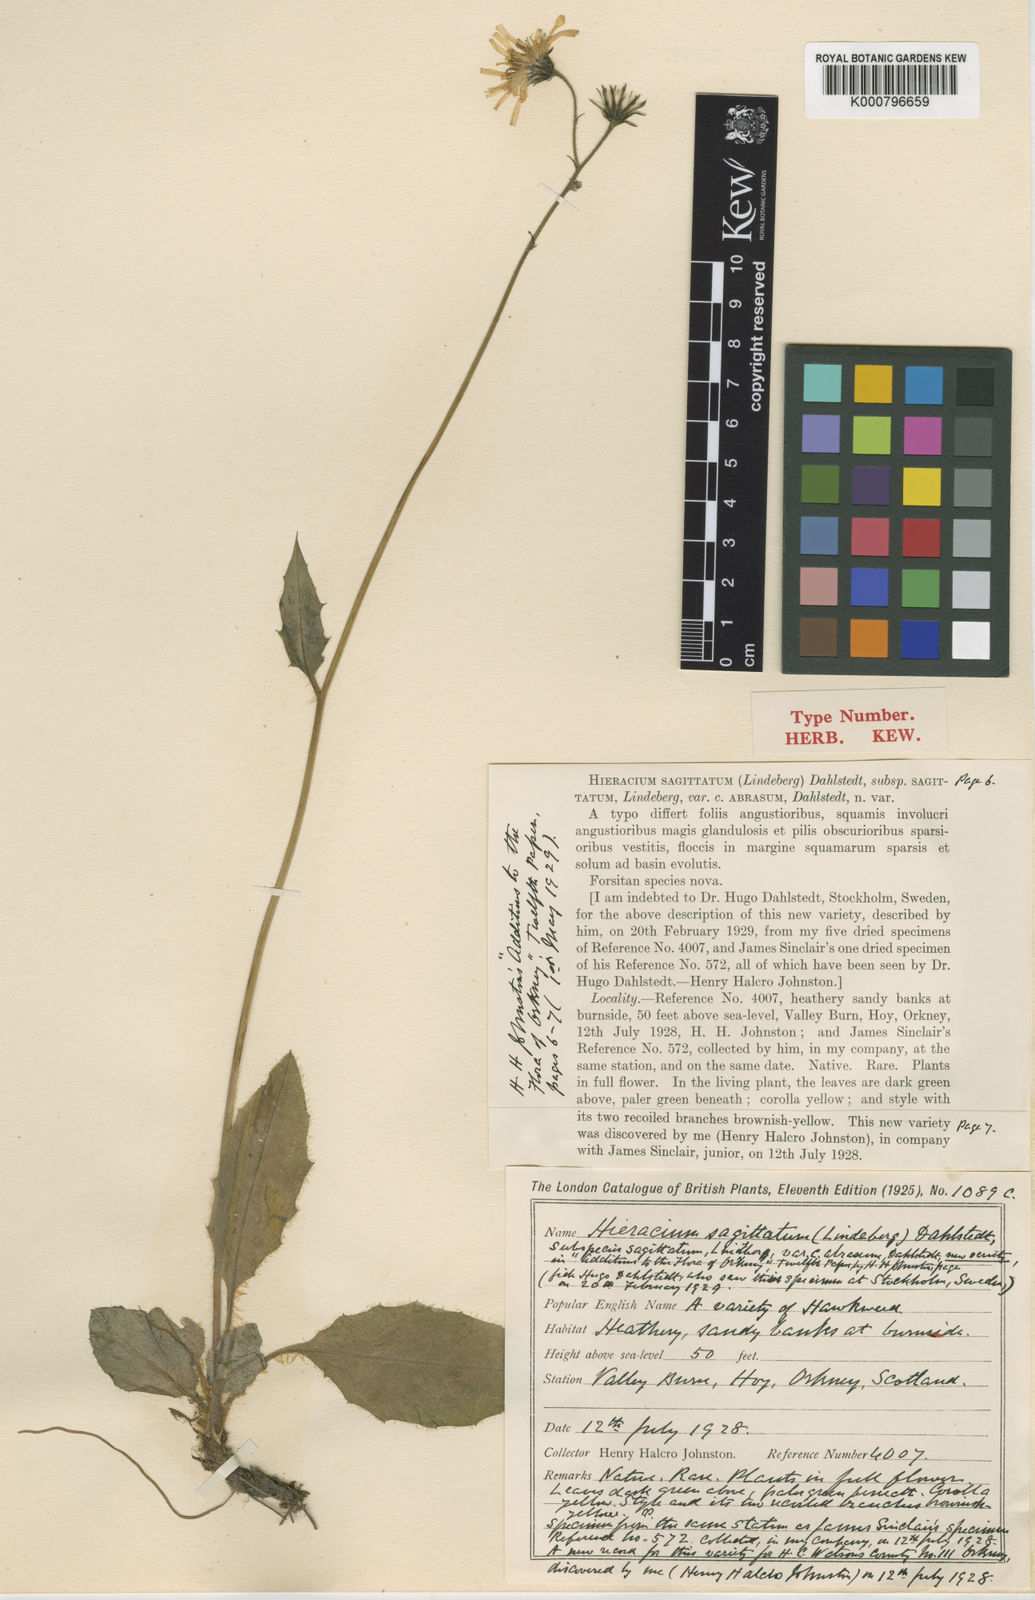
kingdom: Plantae
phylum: Tracheophyta
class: Magnoliopsida
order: Asterales
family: Asteraceae
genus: Hieracium
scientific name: Hieracium fuscocinereum
